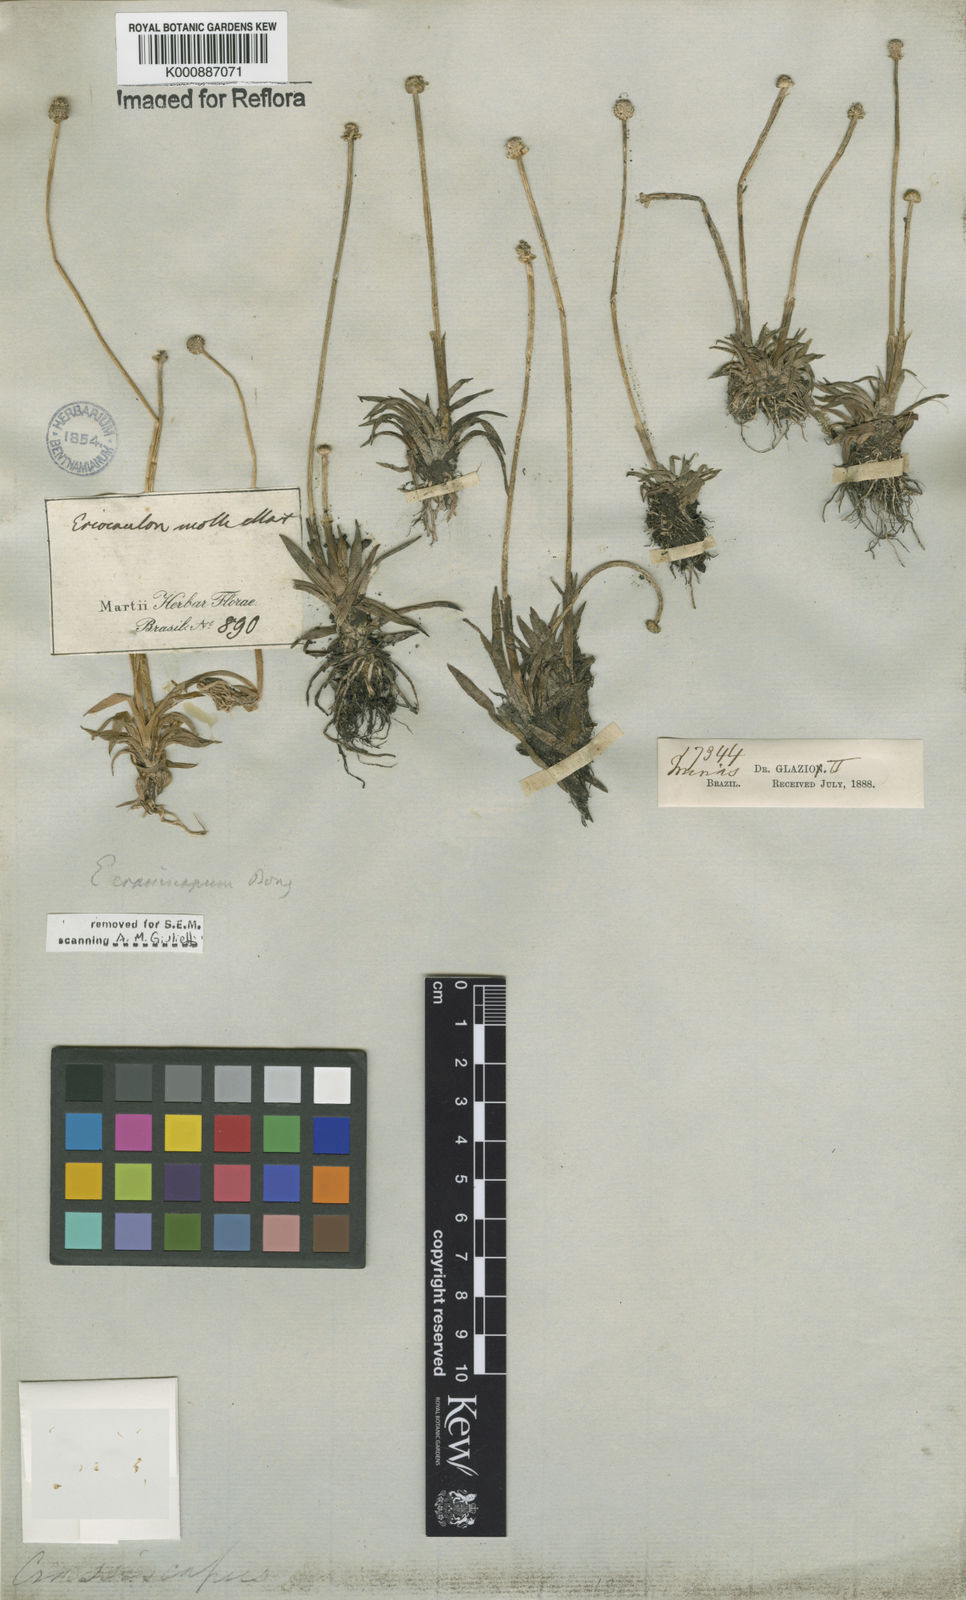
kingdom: Plantae
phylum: Tracheophyta
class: Liliopsida
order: Poales
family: Eriocaulaceae
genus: Eriocaulon
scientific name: Eriocaulon crassiscapum
